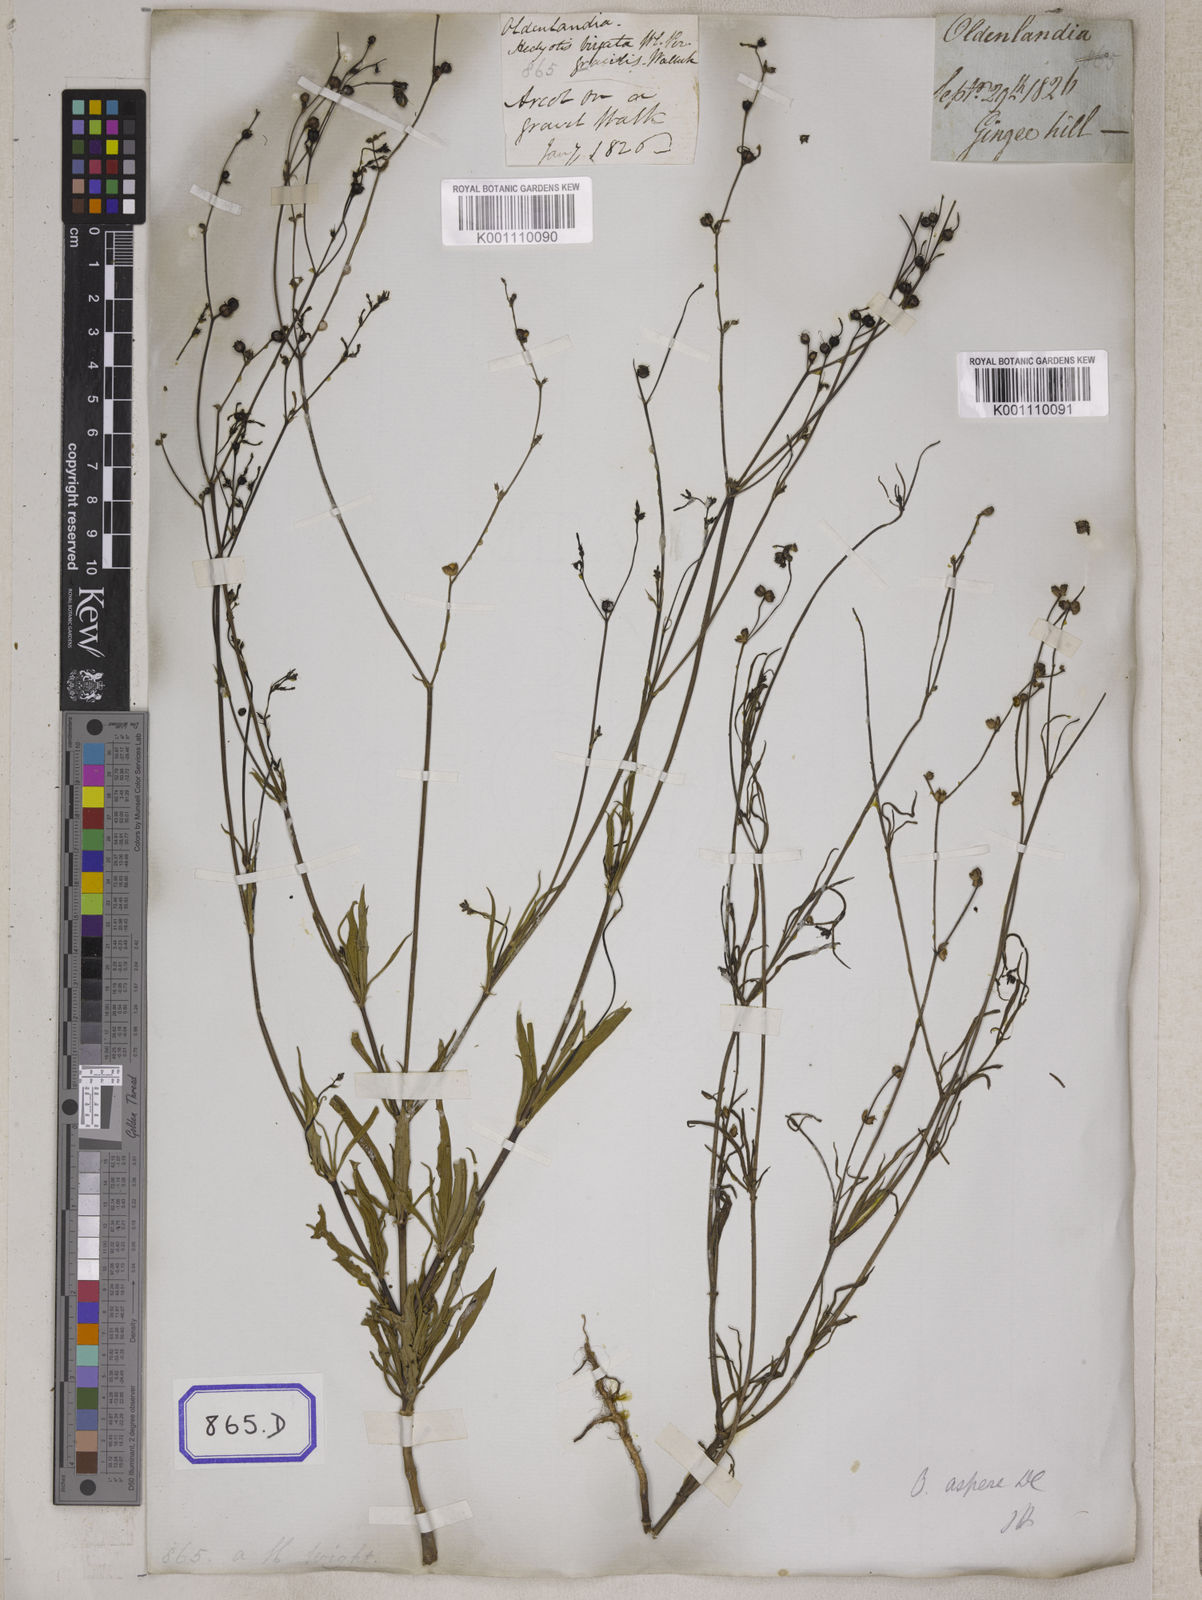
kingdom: Plantae
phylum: Tracheophyta
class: Magnoliopsida
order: Gentianales
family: Rubiaceae
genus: Hedyotis
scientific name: Hedyotis
